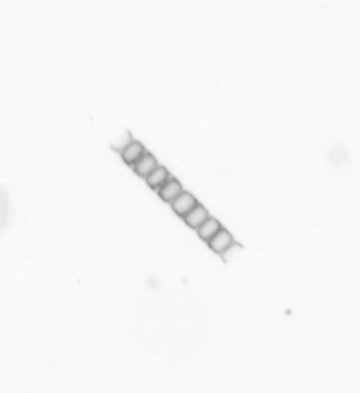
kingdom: Chromista
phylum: Ochrophyta
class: Bacillariophyceae
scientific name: Bacillariophyceae
